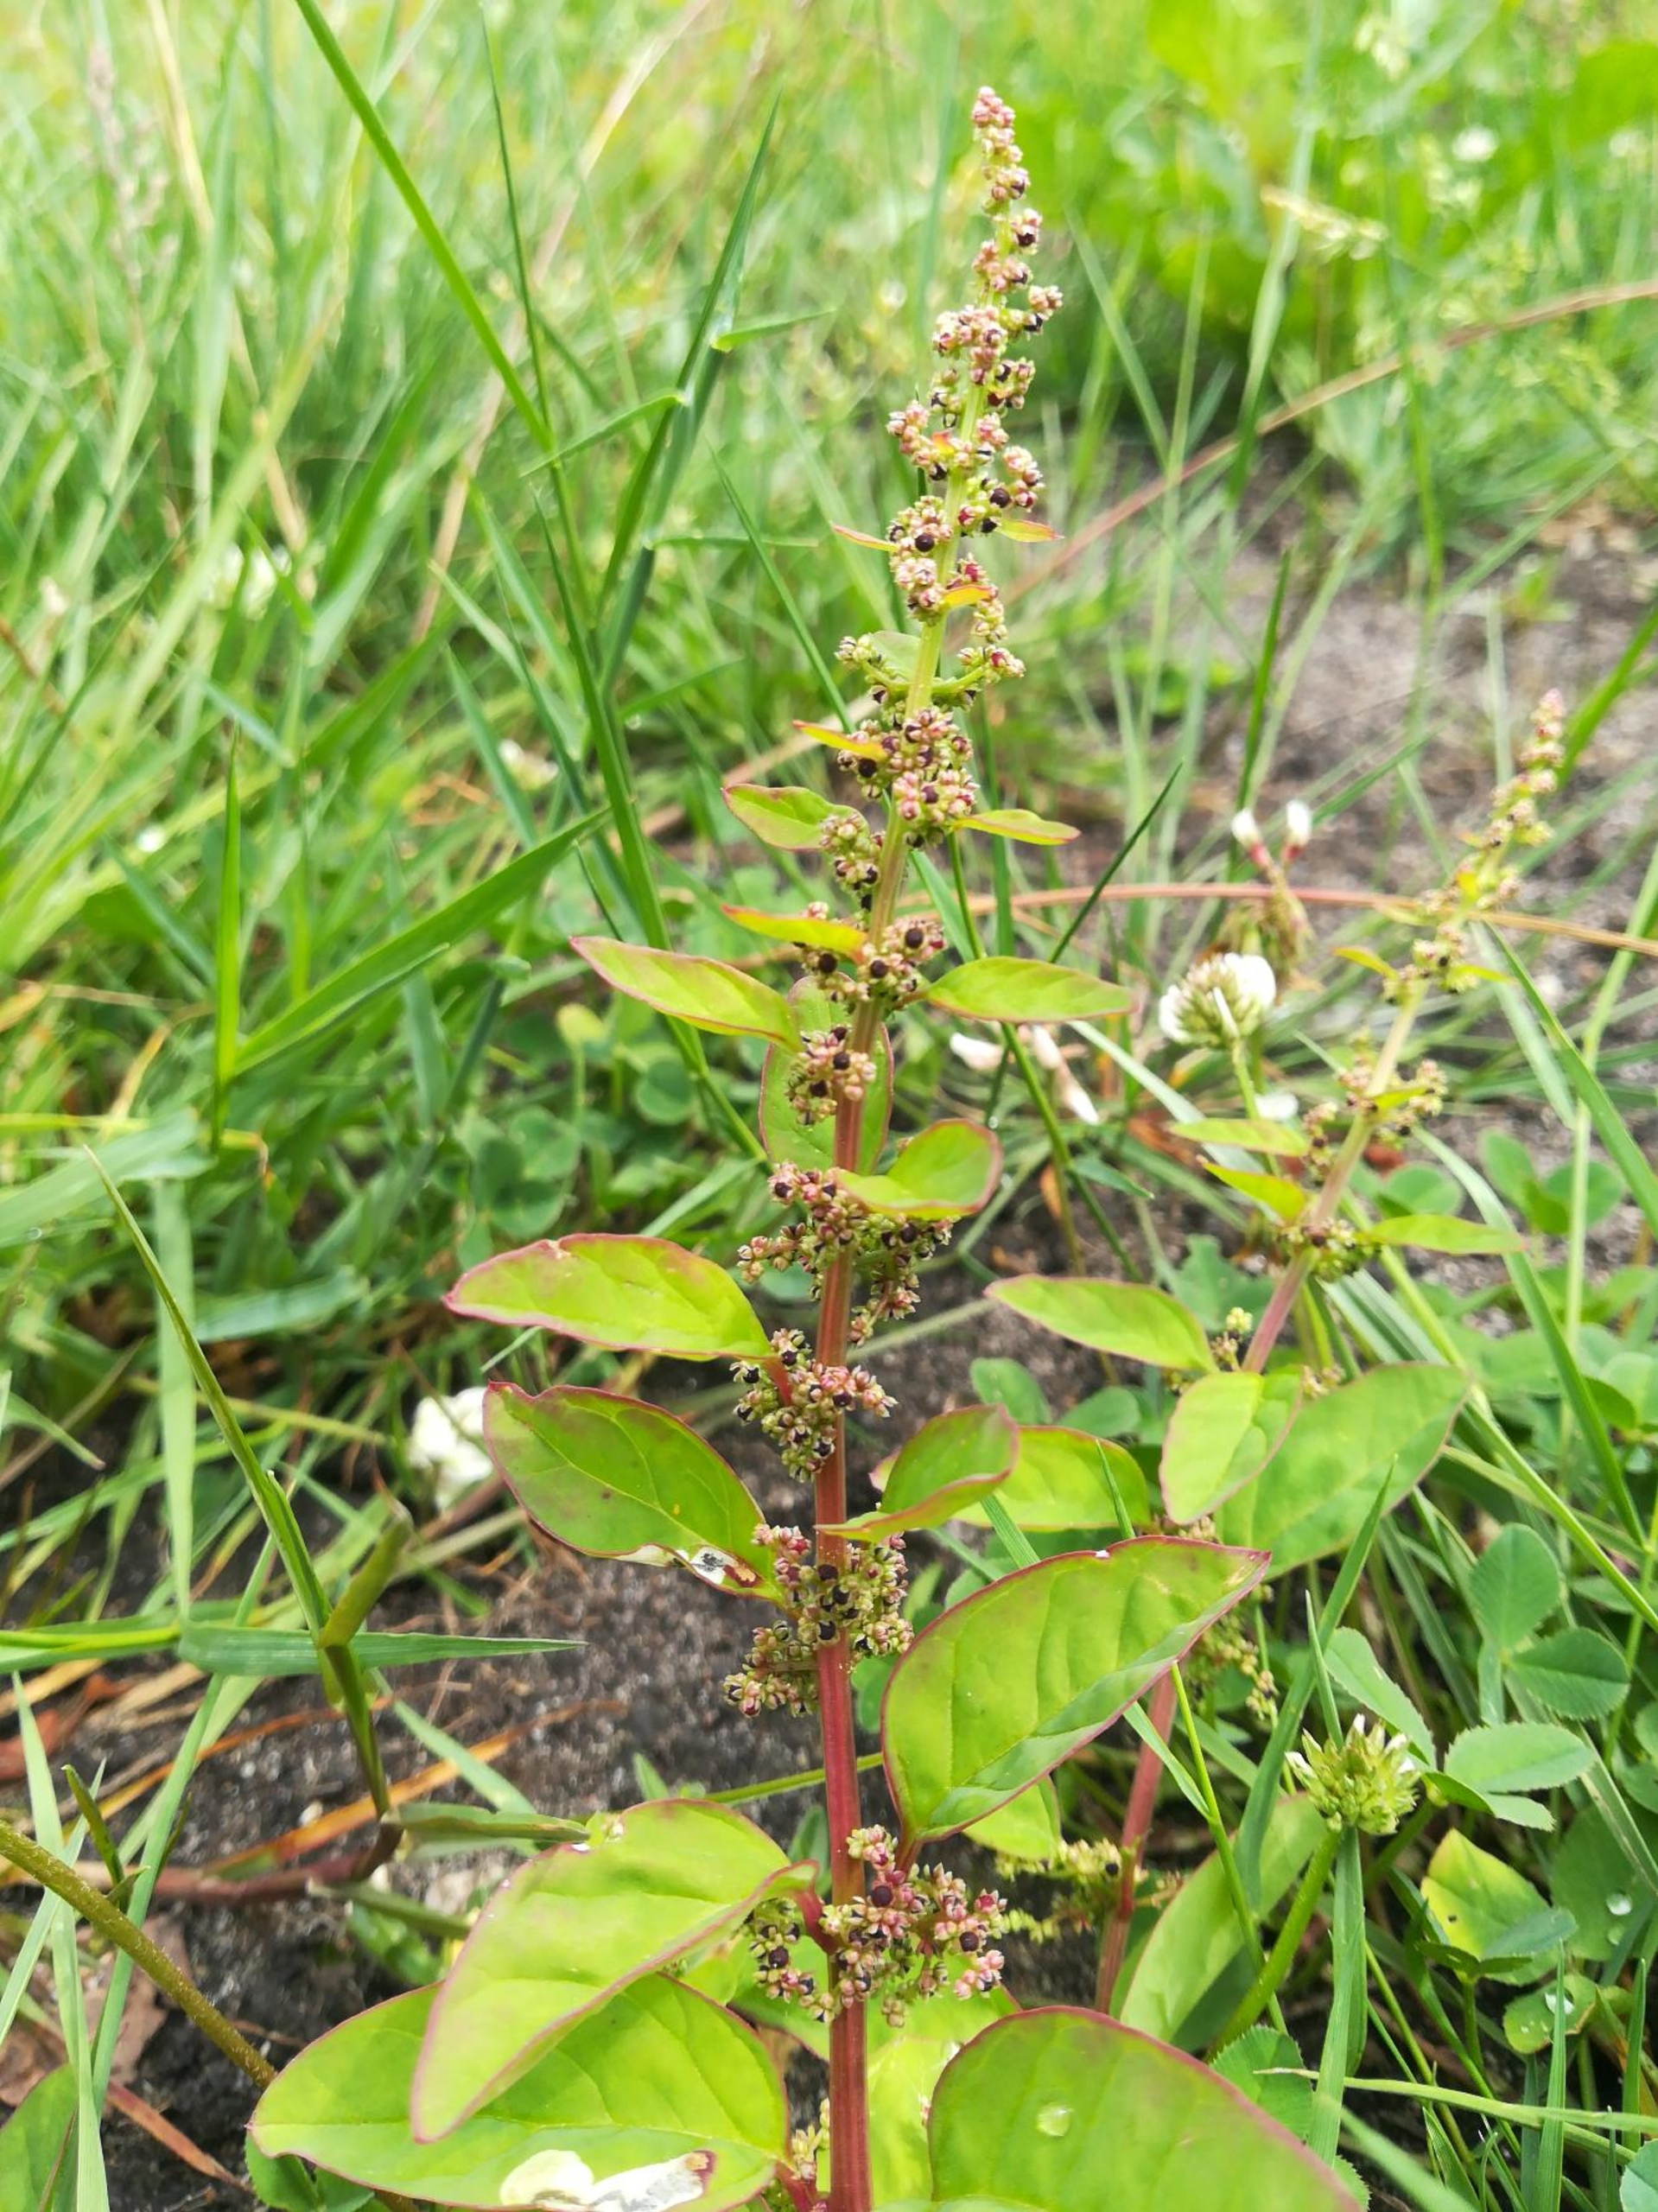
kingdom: Plantae
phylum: Tracheophyta
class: Magnoliopsida
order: Caryophyllales
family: Amaranthaceae
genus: Lipandra
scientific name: Lipandra polysperma
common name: Mangefrøet gåsefod
